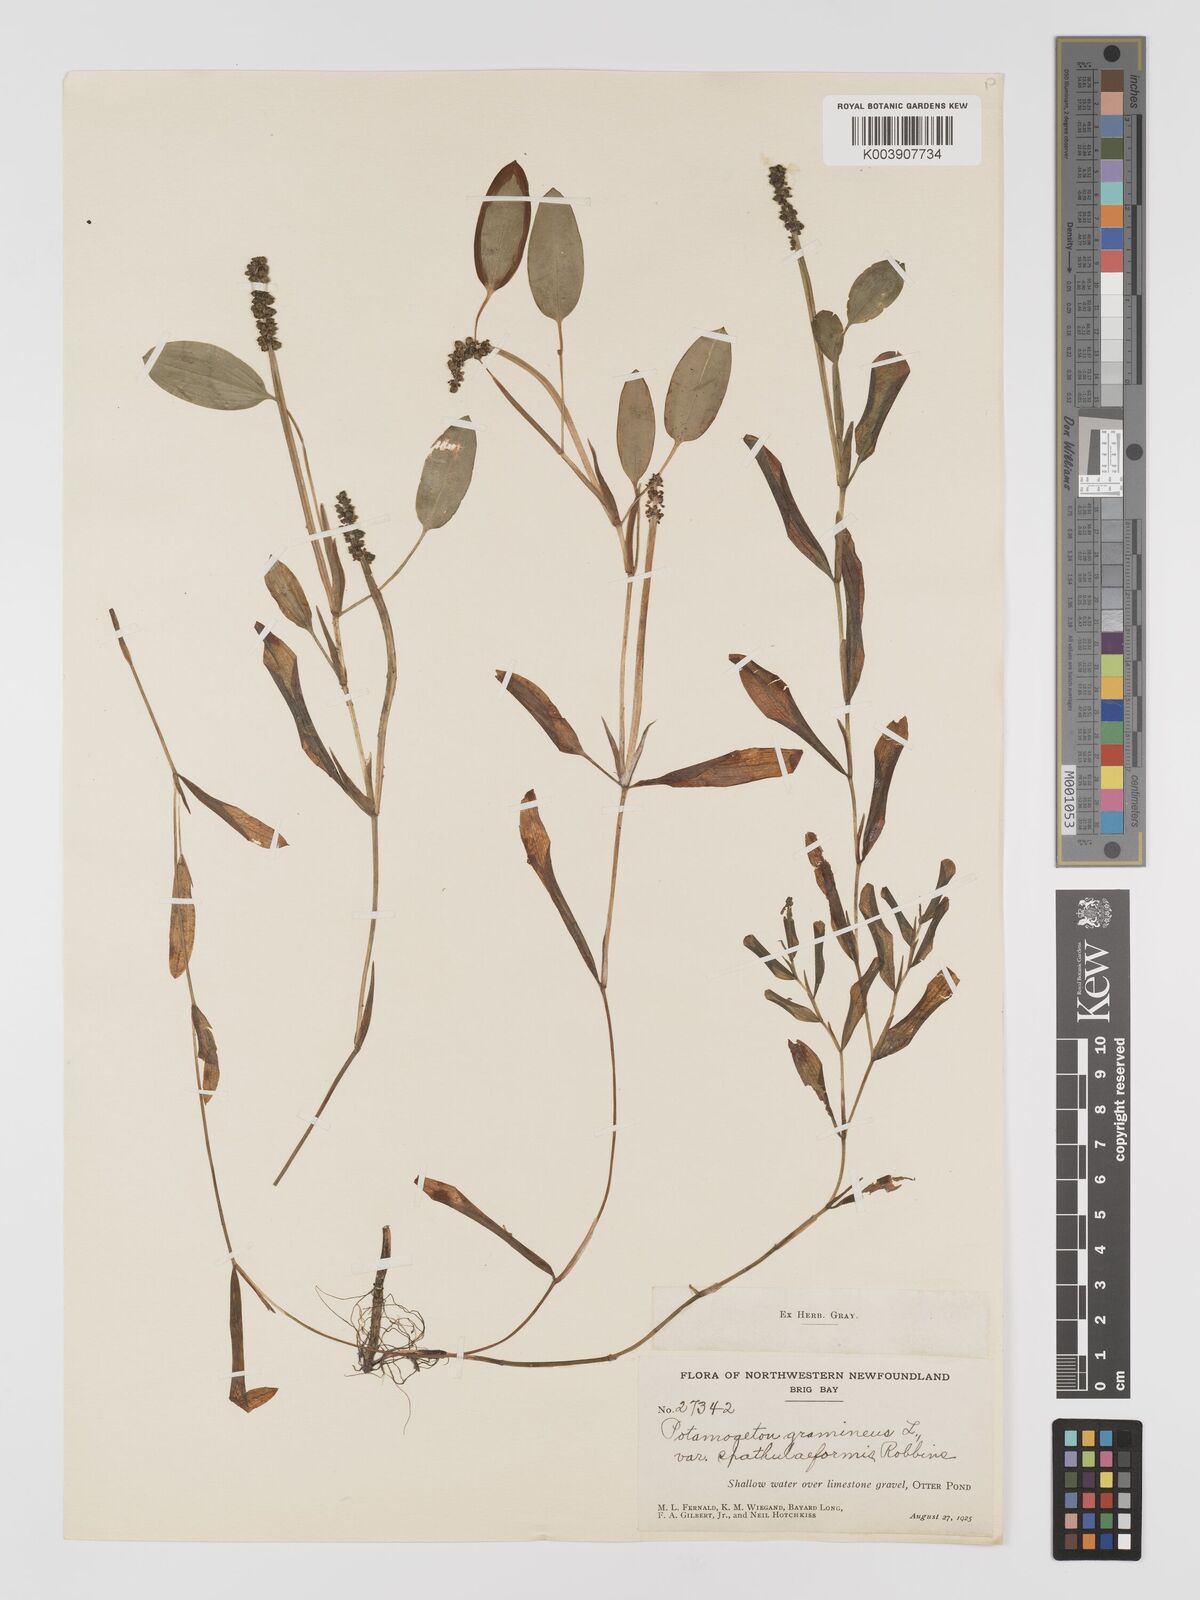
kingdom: Plantae
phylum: Tracheophyta
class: Liliopsida
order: Alismatales
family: Potamogetonaceae
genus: Potamogeton
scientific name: Potamogeton gramineus
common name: Various-leaved pondweed
